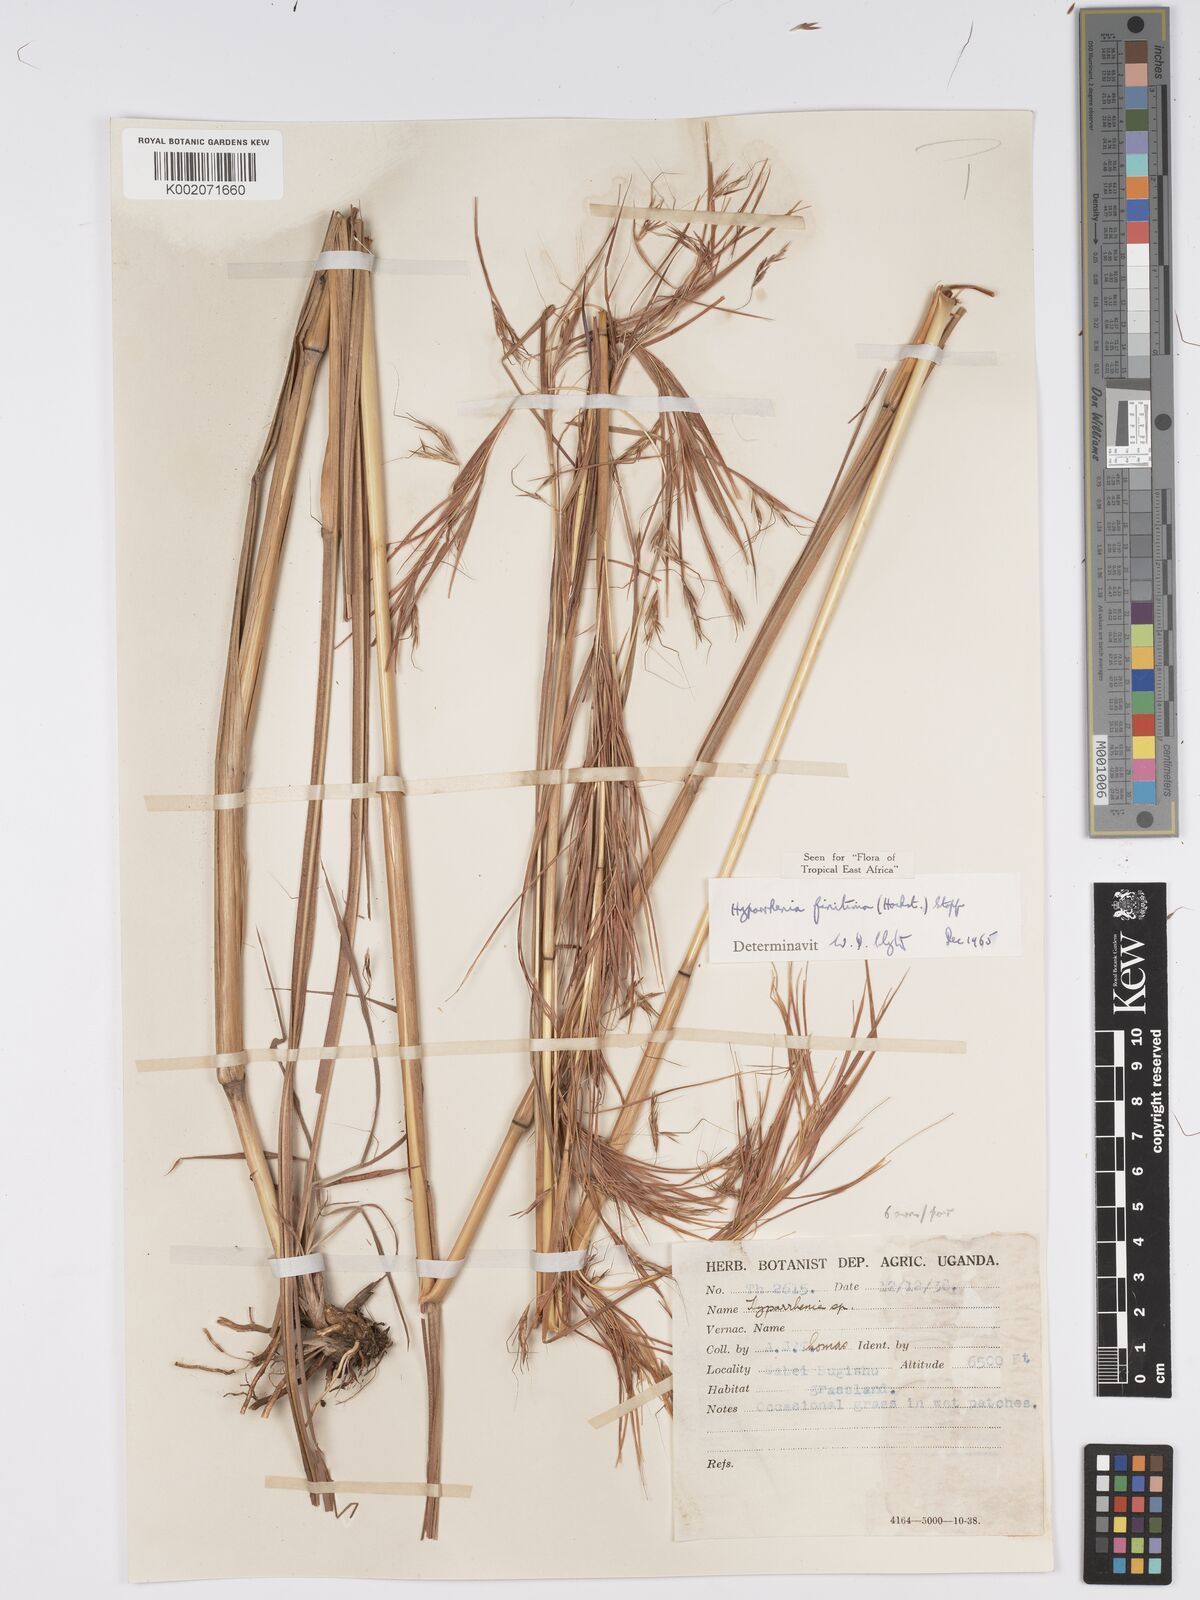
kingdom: Plantae
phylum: Tracheophyta
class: Liliopsida
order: Poales
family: Poaceae
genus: Hyparrhenia
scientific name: Hyparrhenia finitima
